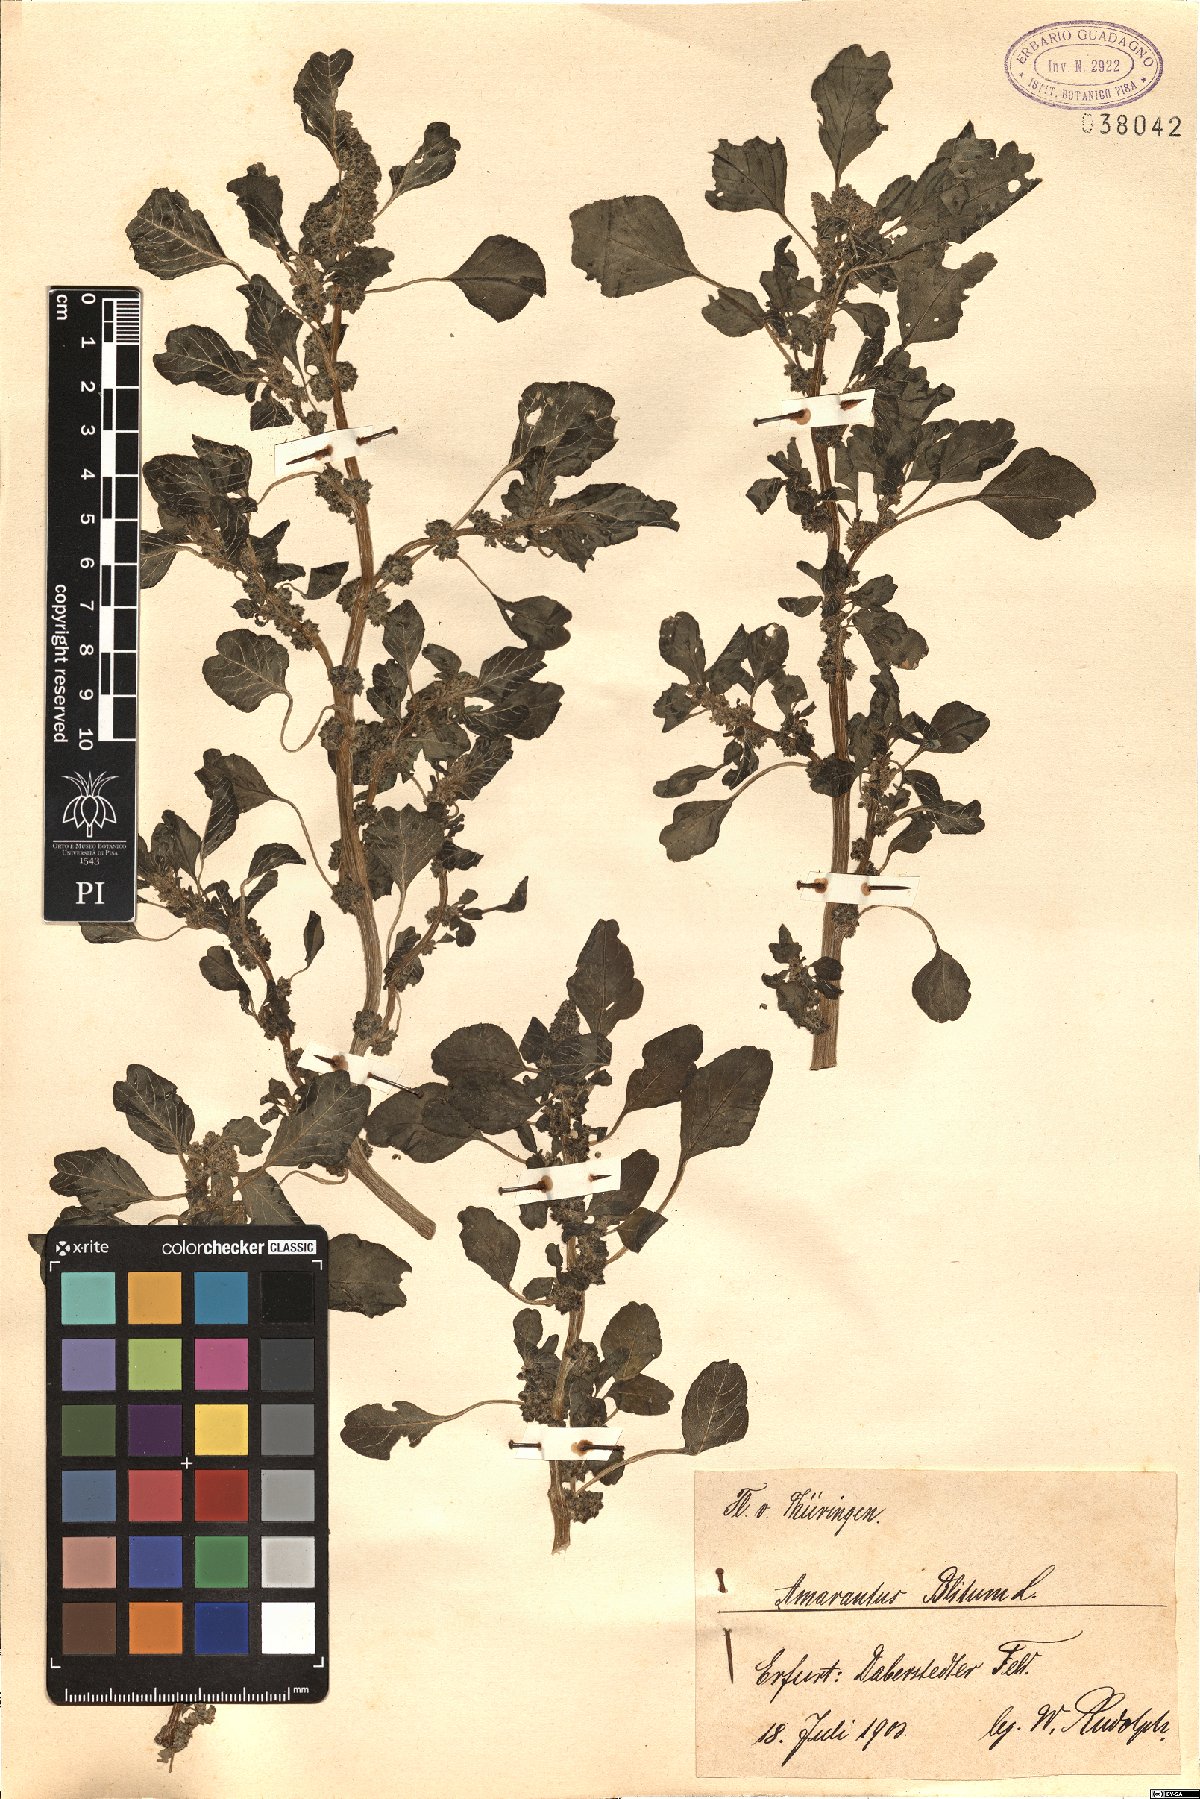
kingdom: Plantae
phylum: Tracheophyta
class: Magnoliopsida
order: Caryophyllales
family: Amaranthaceae
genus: Amaranthus
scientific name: Amaranthus blitum
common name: Purple amaranth
